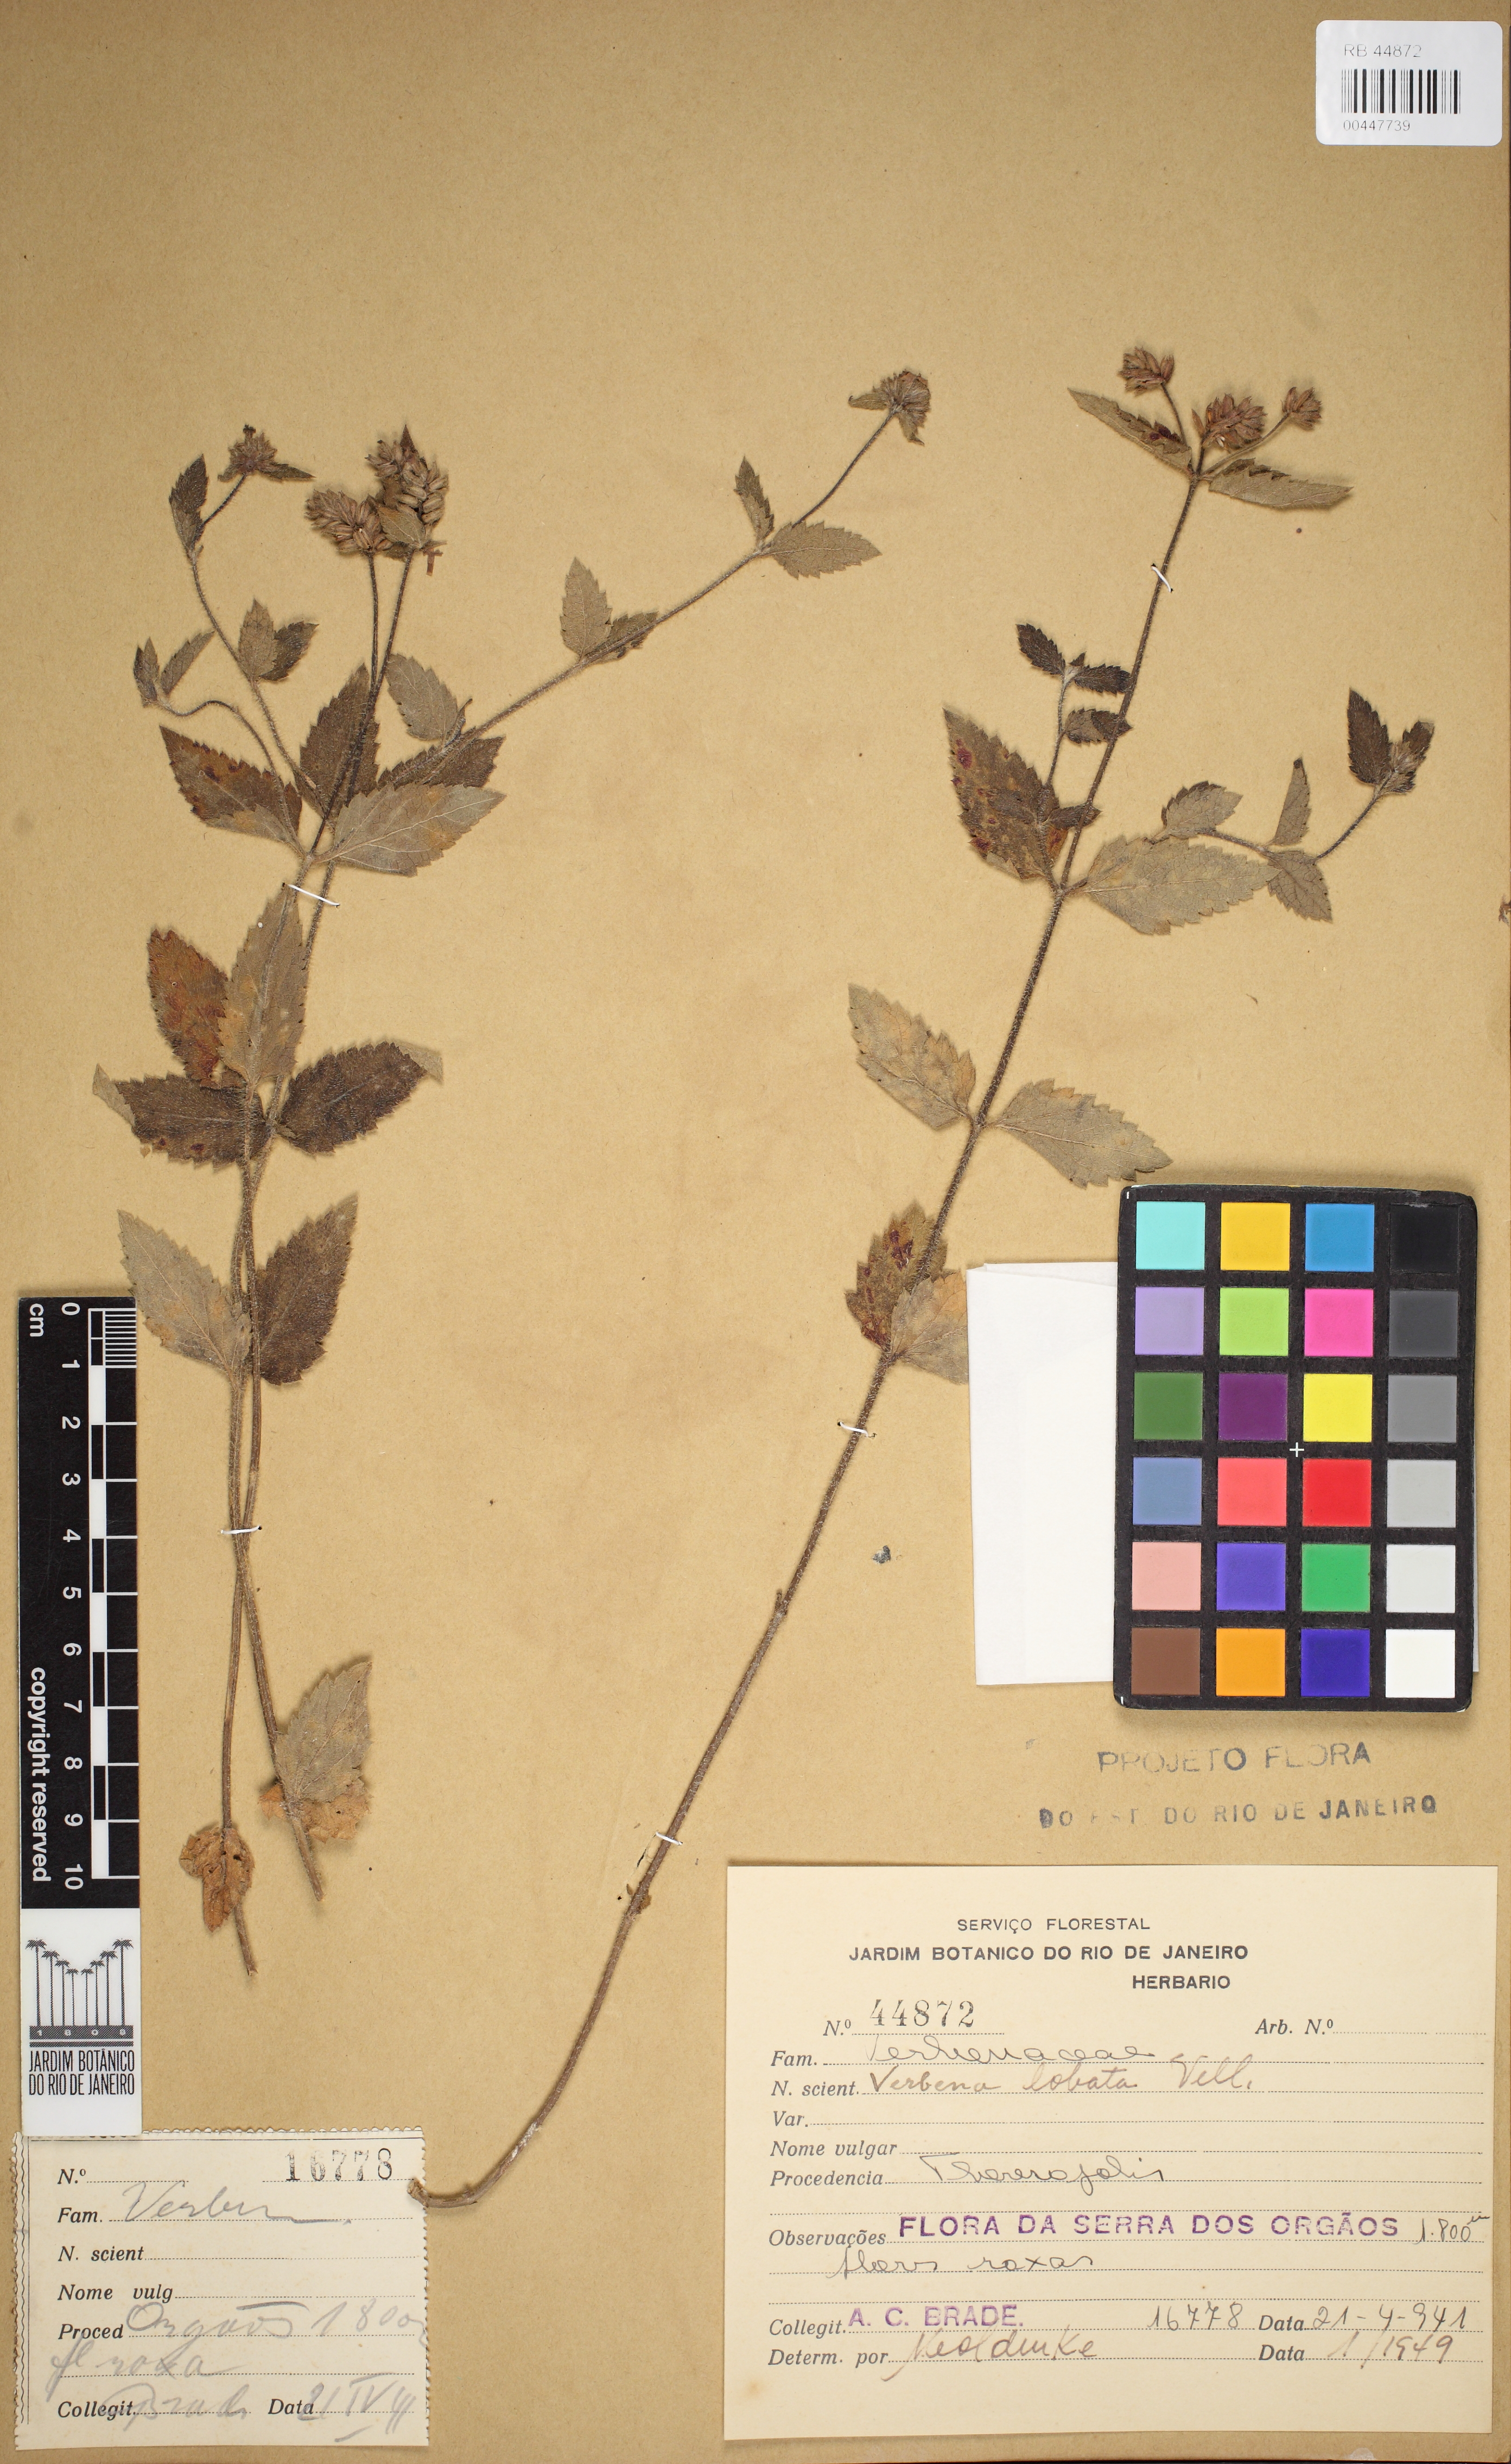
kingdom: Plantae
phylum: Tracheophyta
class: Magnoliopsida
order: Lamiales
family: Verbenaceae
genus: Verbena
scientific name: Verbena lobata
